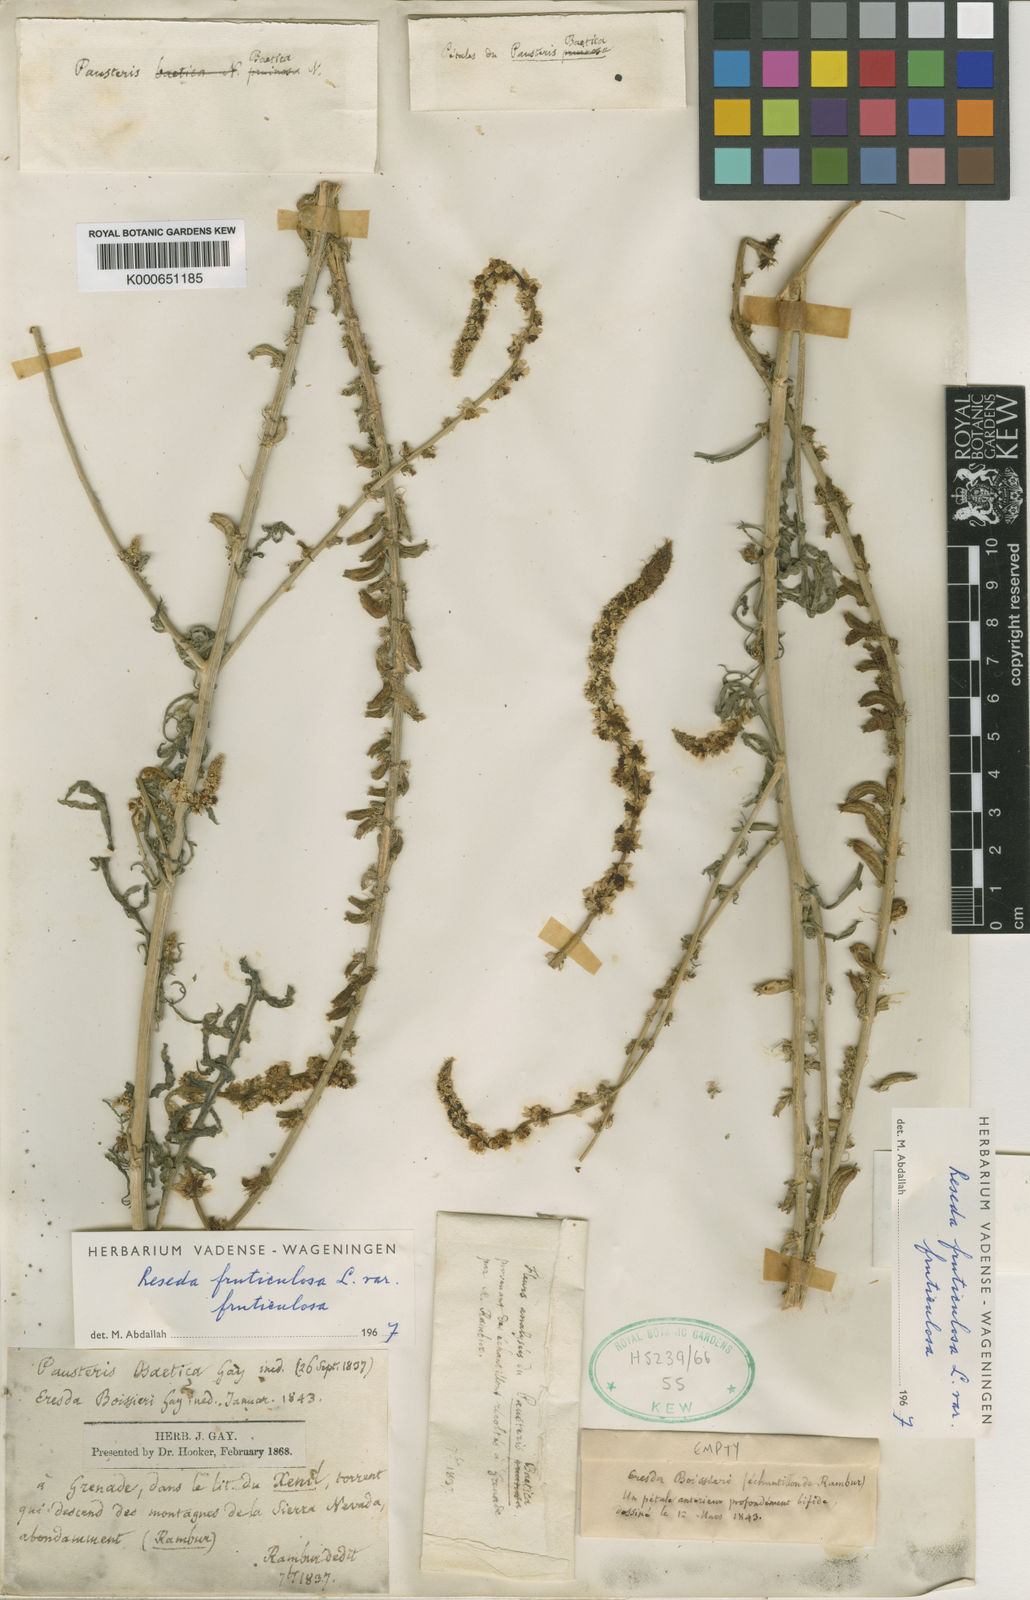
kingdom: Plantae
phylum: Tracheophyta
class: Magnoliopsida
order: Brassicales
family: Resedaceae
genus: Reseda
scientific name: Reseda alba
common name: White mignonette
